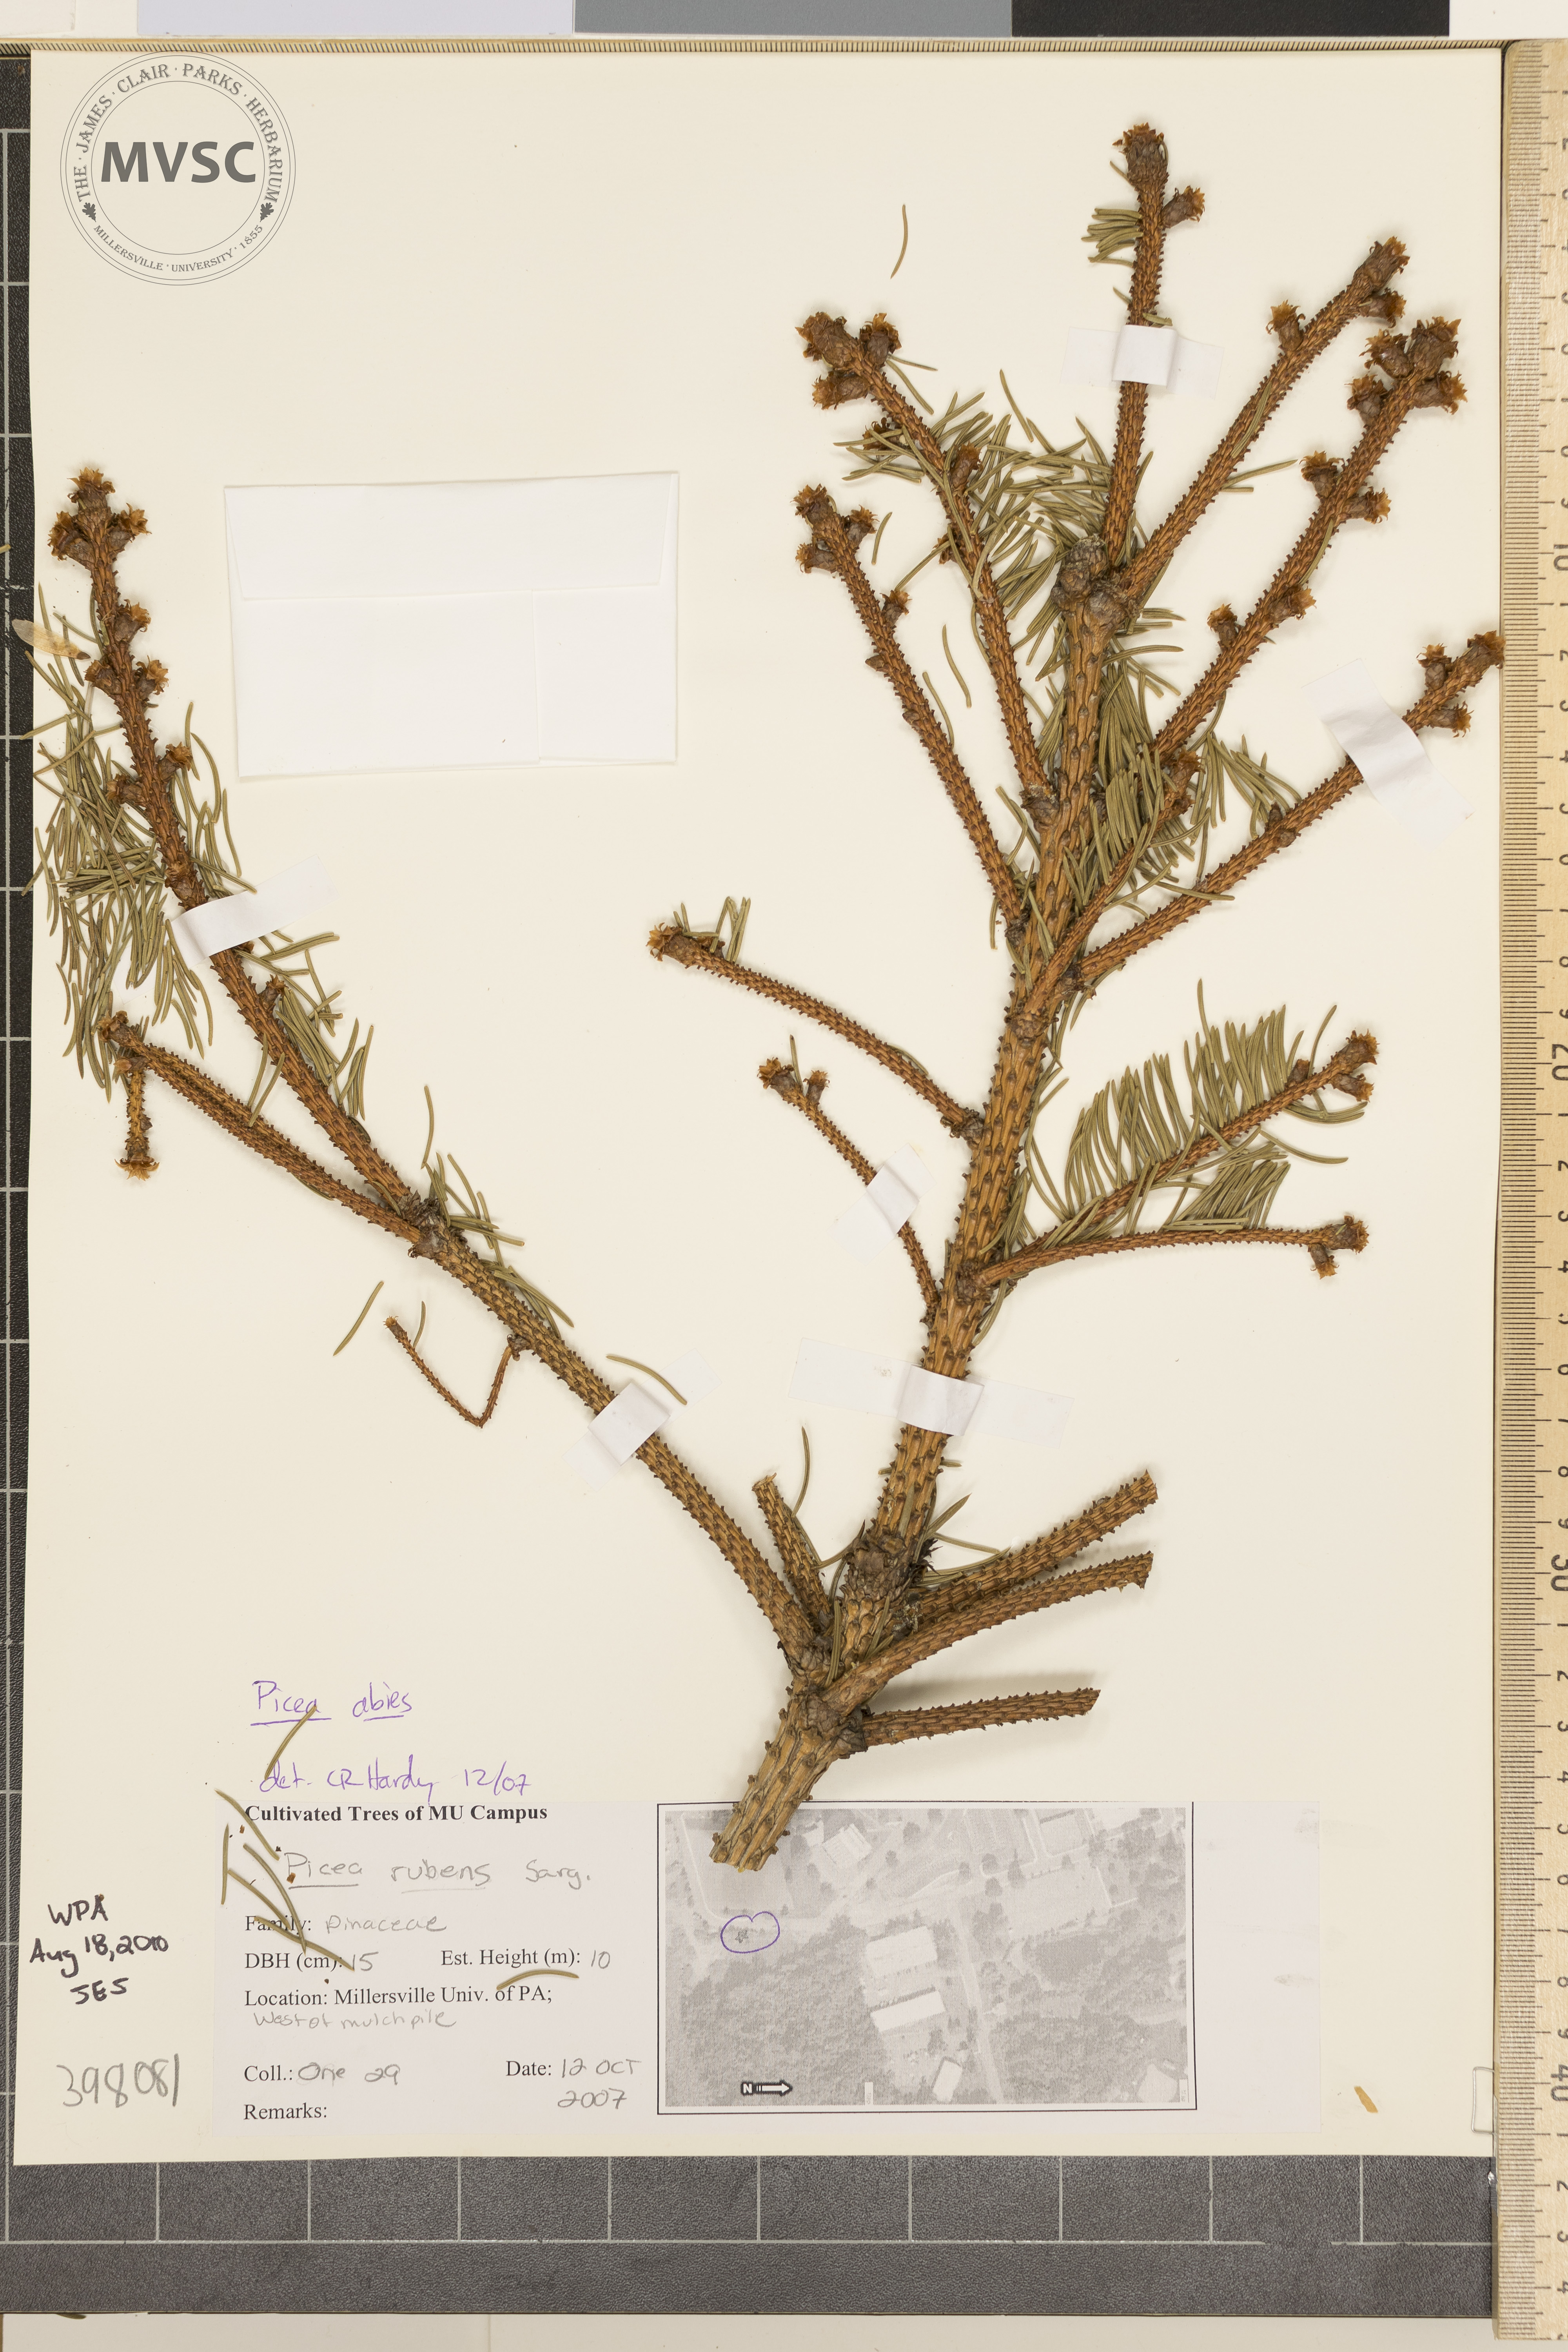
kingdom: Plantae
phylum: Tracheophyta
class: Pinopsida
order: Pinales
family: Pinaceae
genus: Picea
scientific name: Picea abies
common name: Norway spruce
